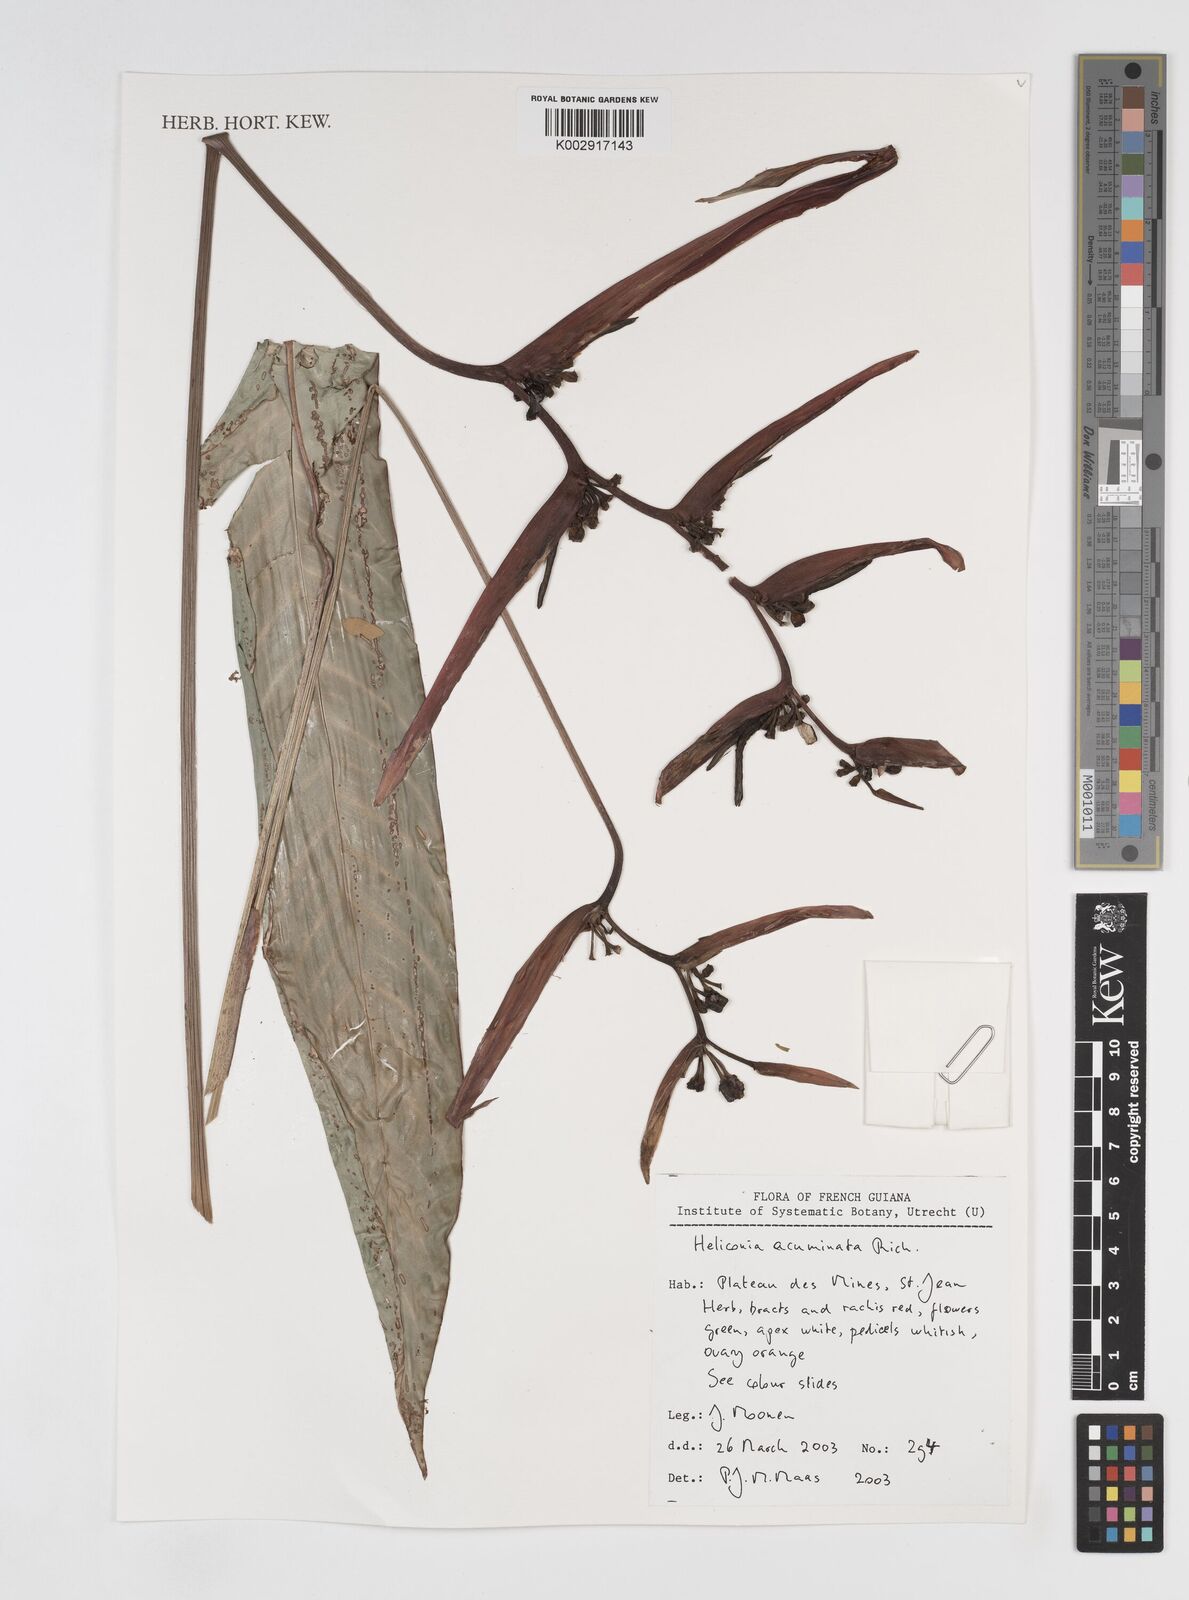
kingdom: Plantae
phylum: Tracheophyta
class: Liliopsida
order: Zingiberales
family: Heliconiaceae
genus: Heliconia
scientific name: Heliconia acuminata
